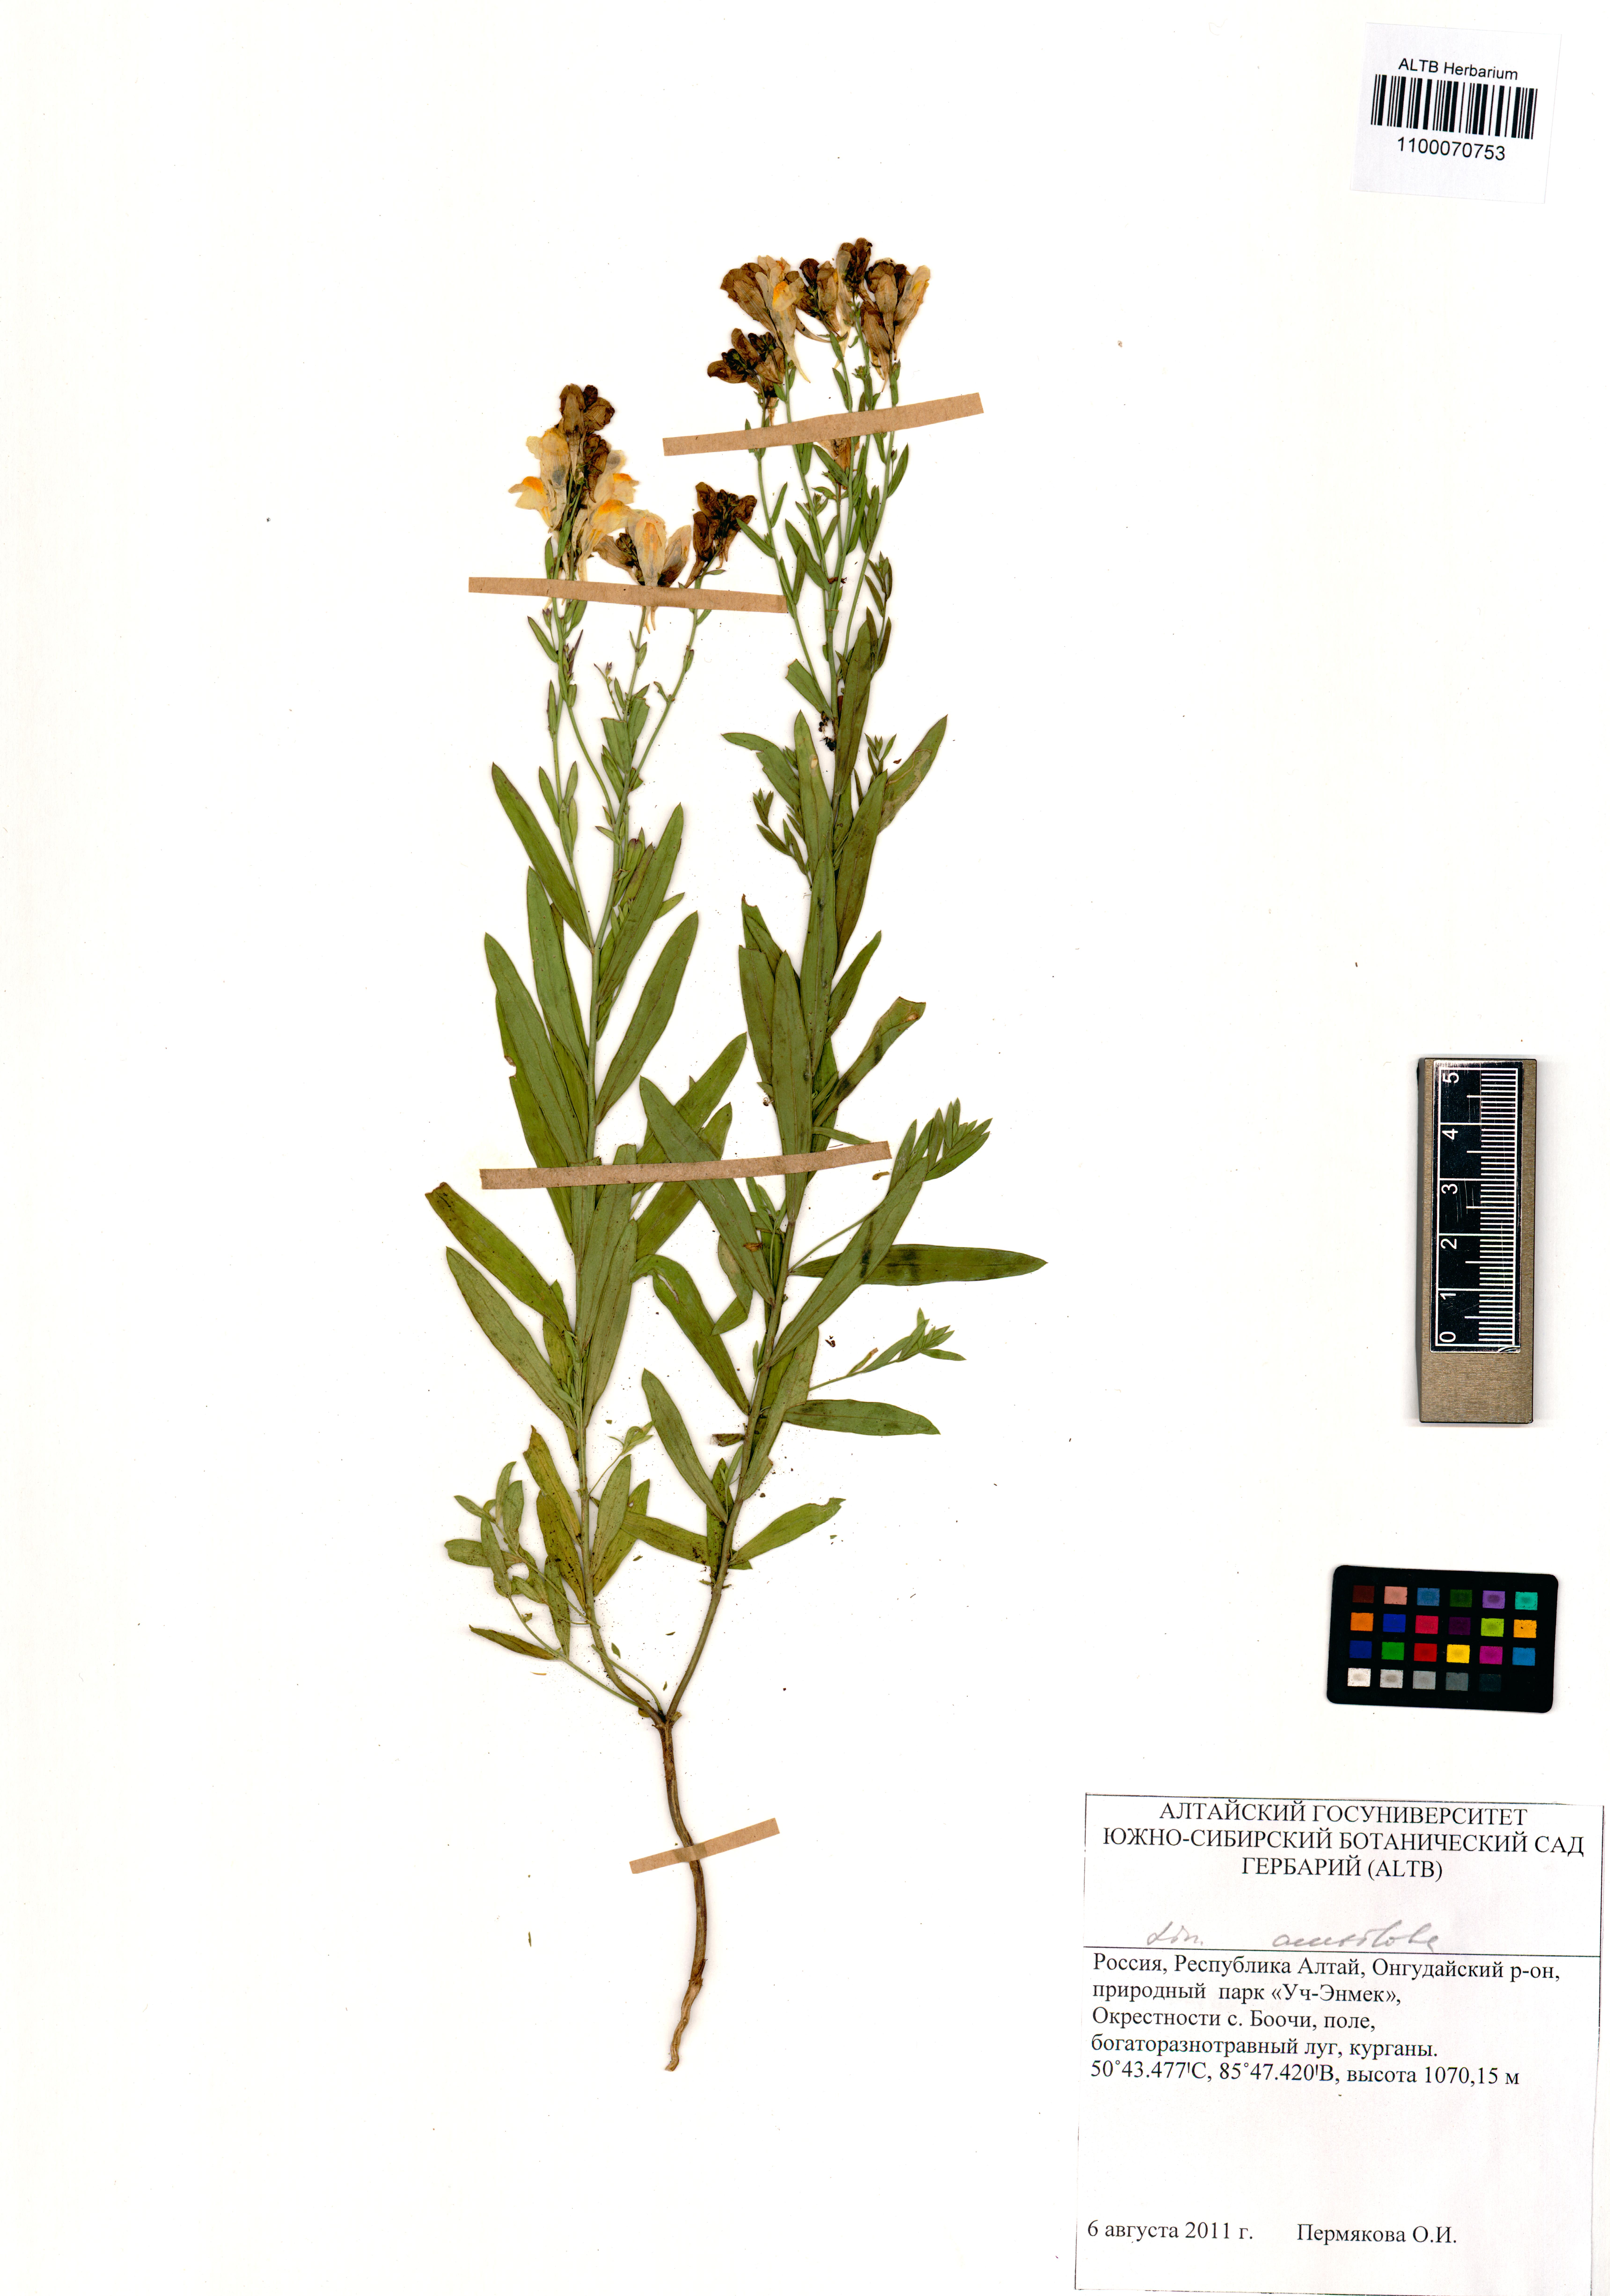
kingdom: Plantae
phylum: Tracheophyta
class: Magnoliopsida
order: Lamiales
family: Plantaginaceae
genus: Linaria
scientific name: Linaria acutiloba
